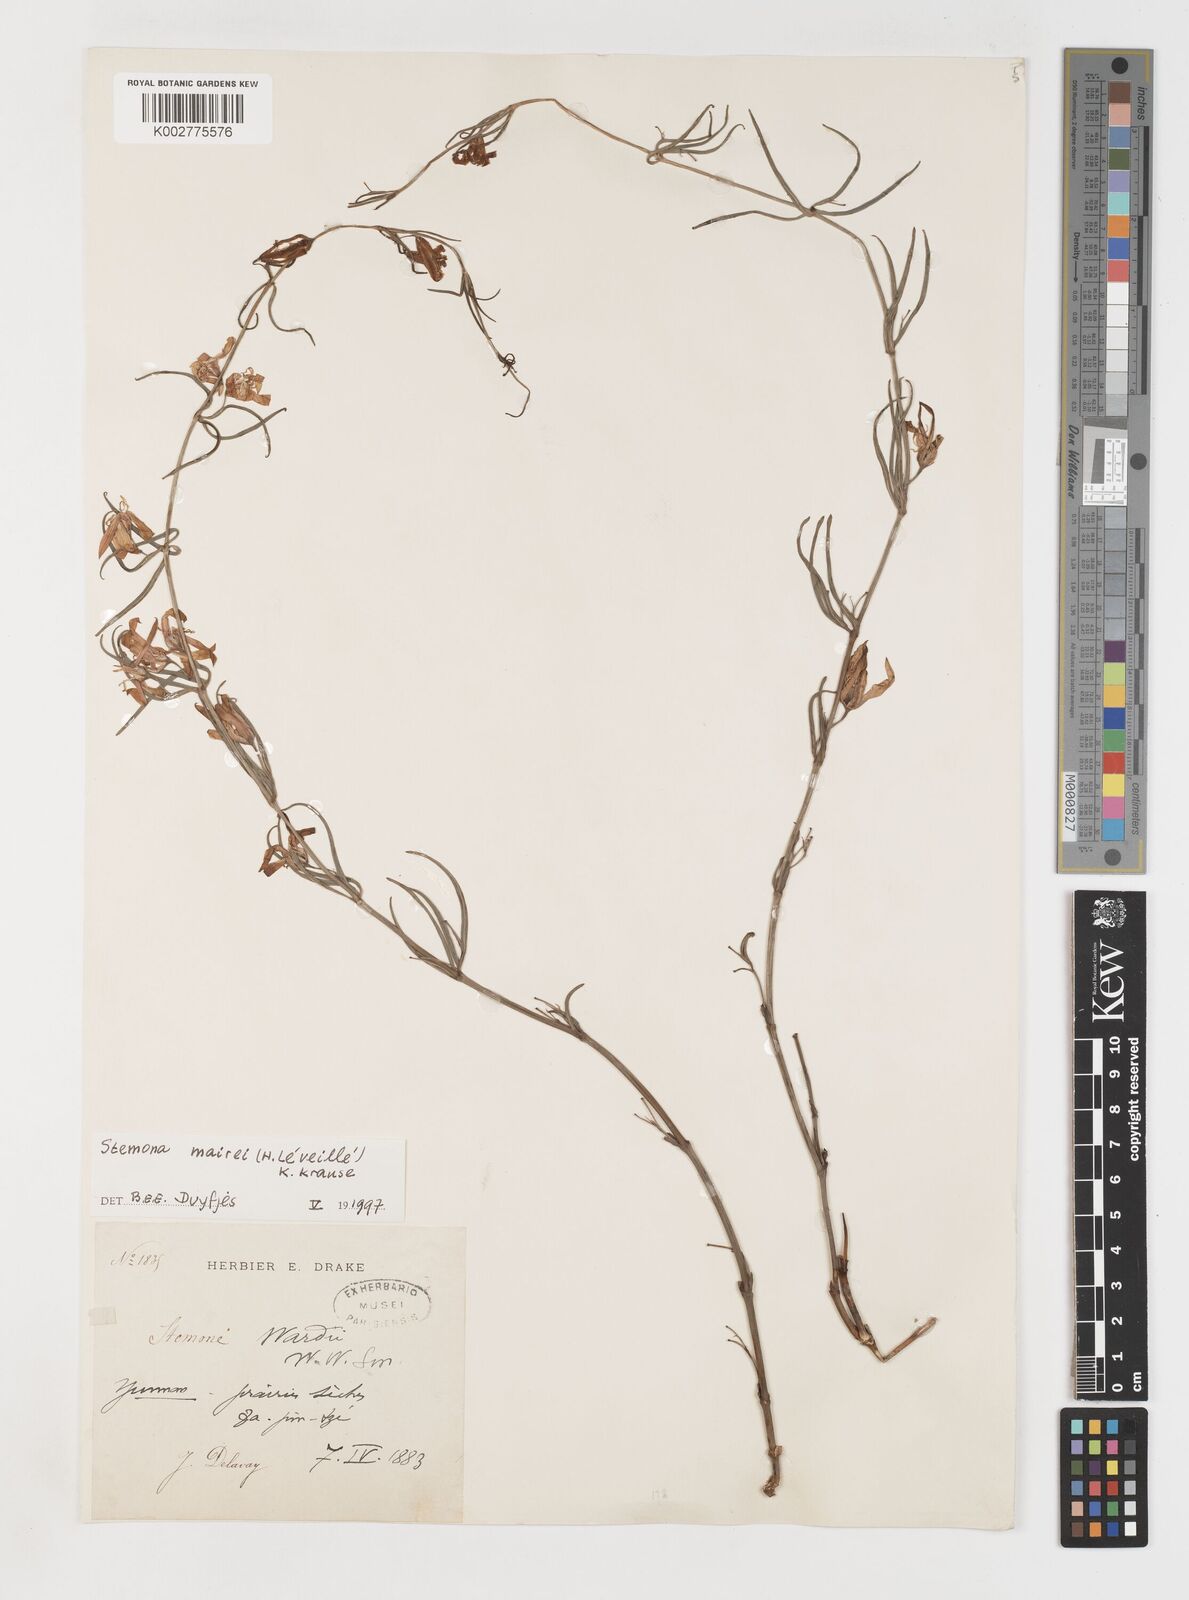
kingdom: Plantae
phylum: Tracheophyta
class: Liliopsida
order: Pandanales
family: Stemonaceae
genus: Stemona
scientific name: Stemona mairei
